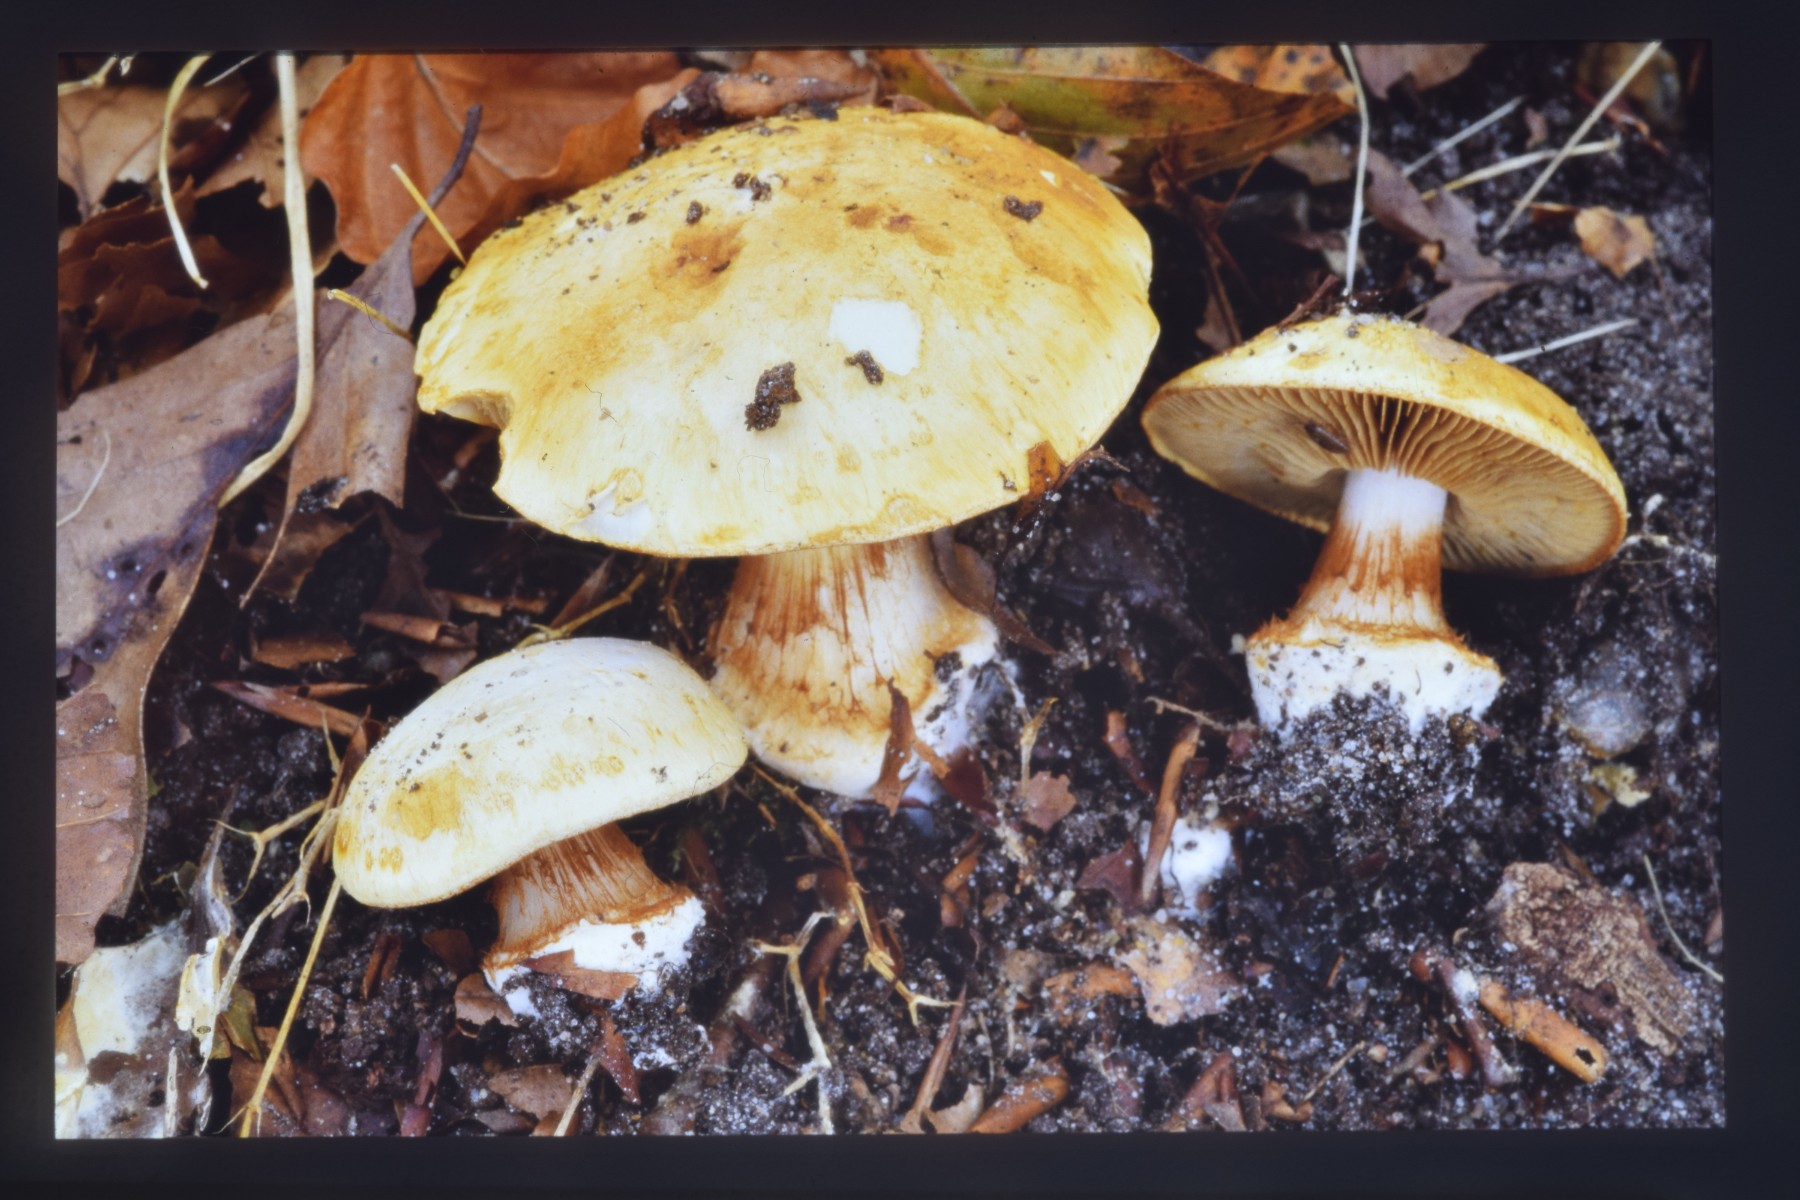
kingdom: Fungi
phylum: Basidiomycota
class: Agaricomycetes
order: Agaricales
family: Cortinariaceae
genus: Calonarius
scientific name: Calonarius osmophorus
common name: duft-slørhat
